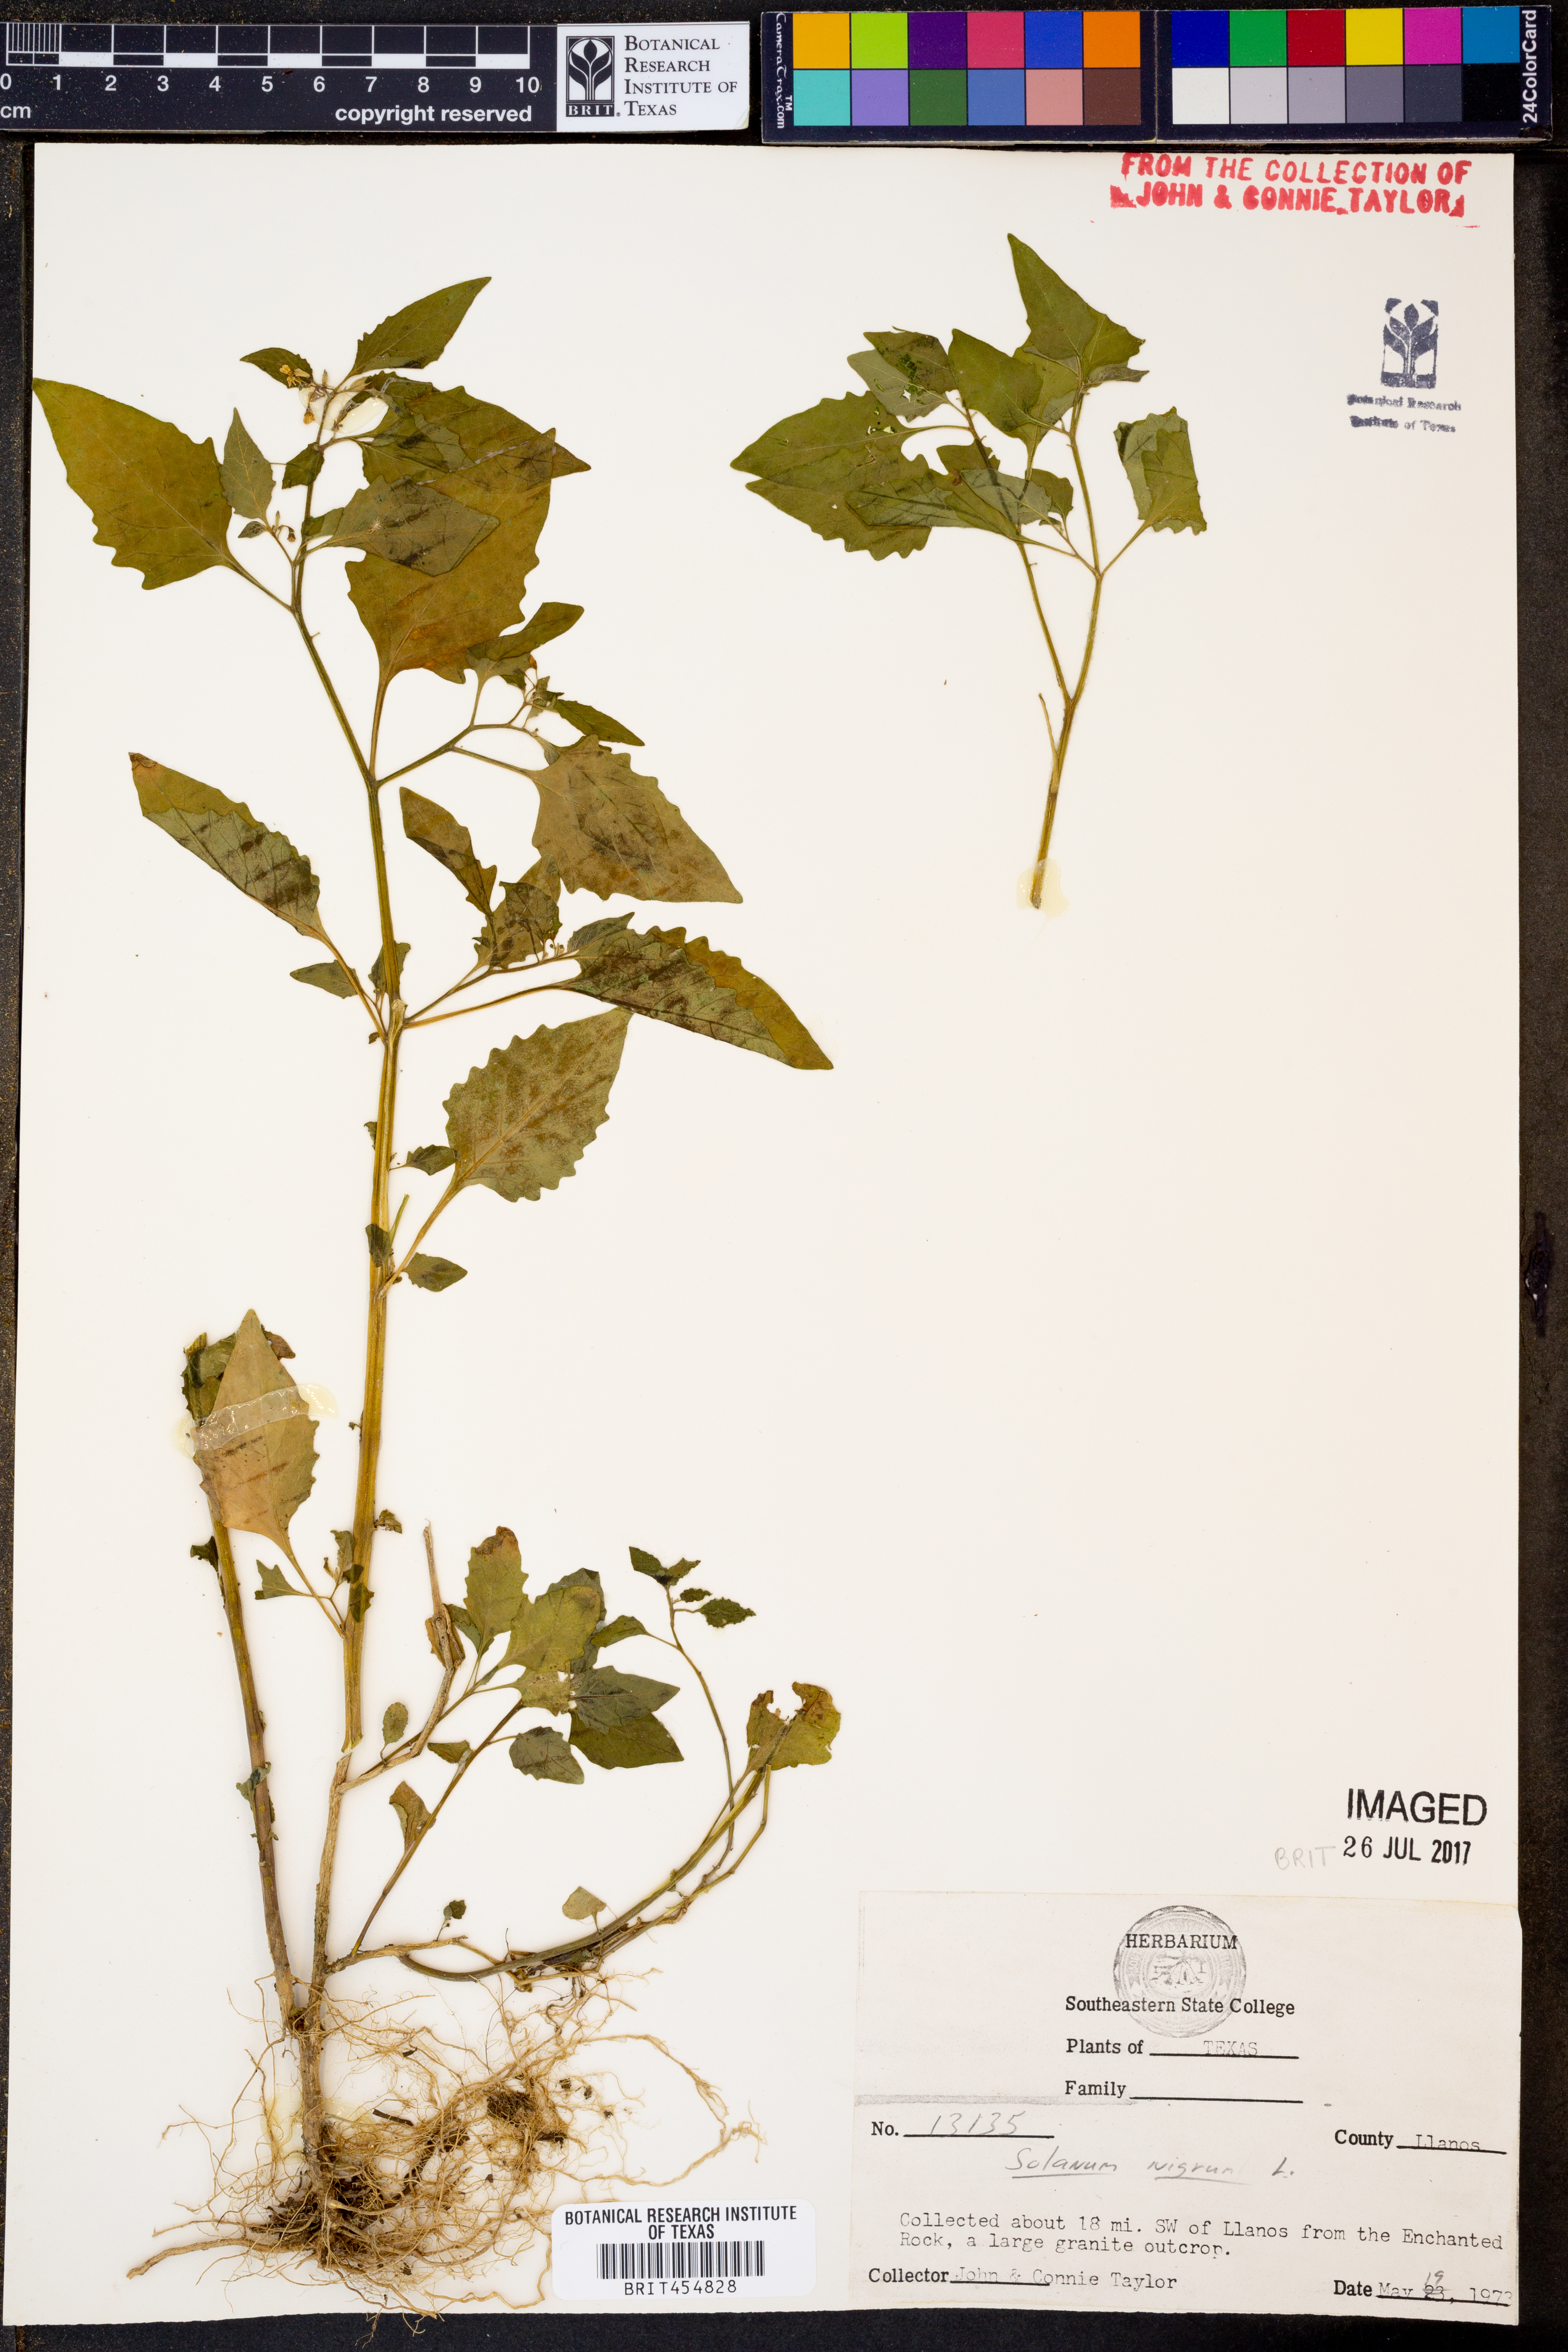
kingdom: Plantae
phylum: Tracheophyta
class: Magnoliopsida
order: Solanales
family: Solanaceae
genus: Solanum
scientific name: Solanum nigrum
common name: Black nightshade
